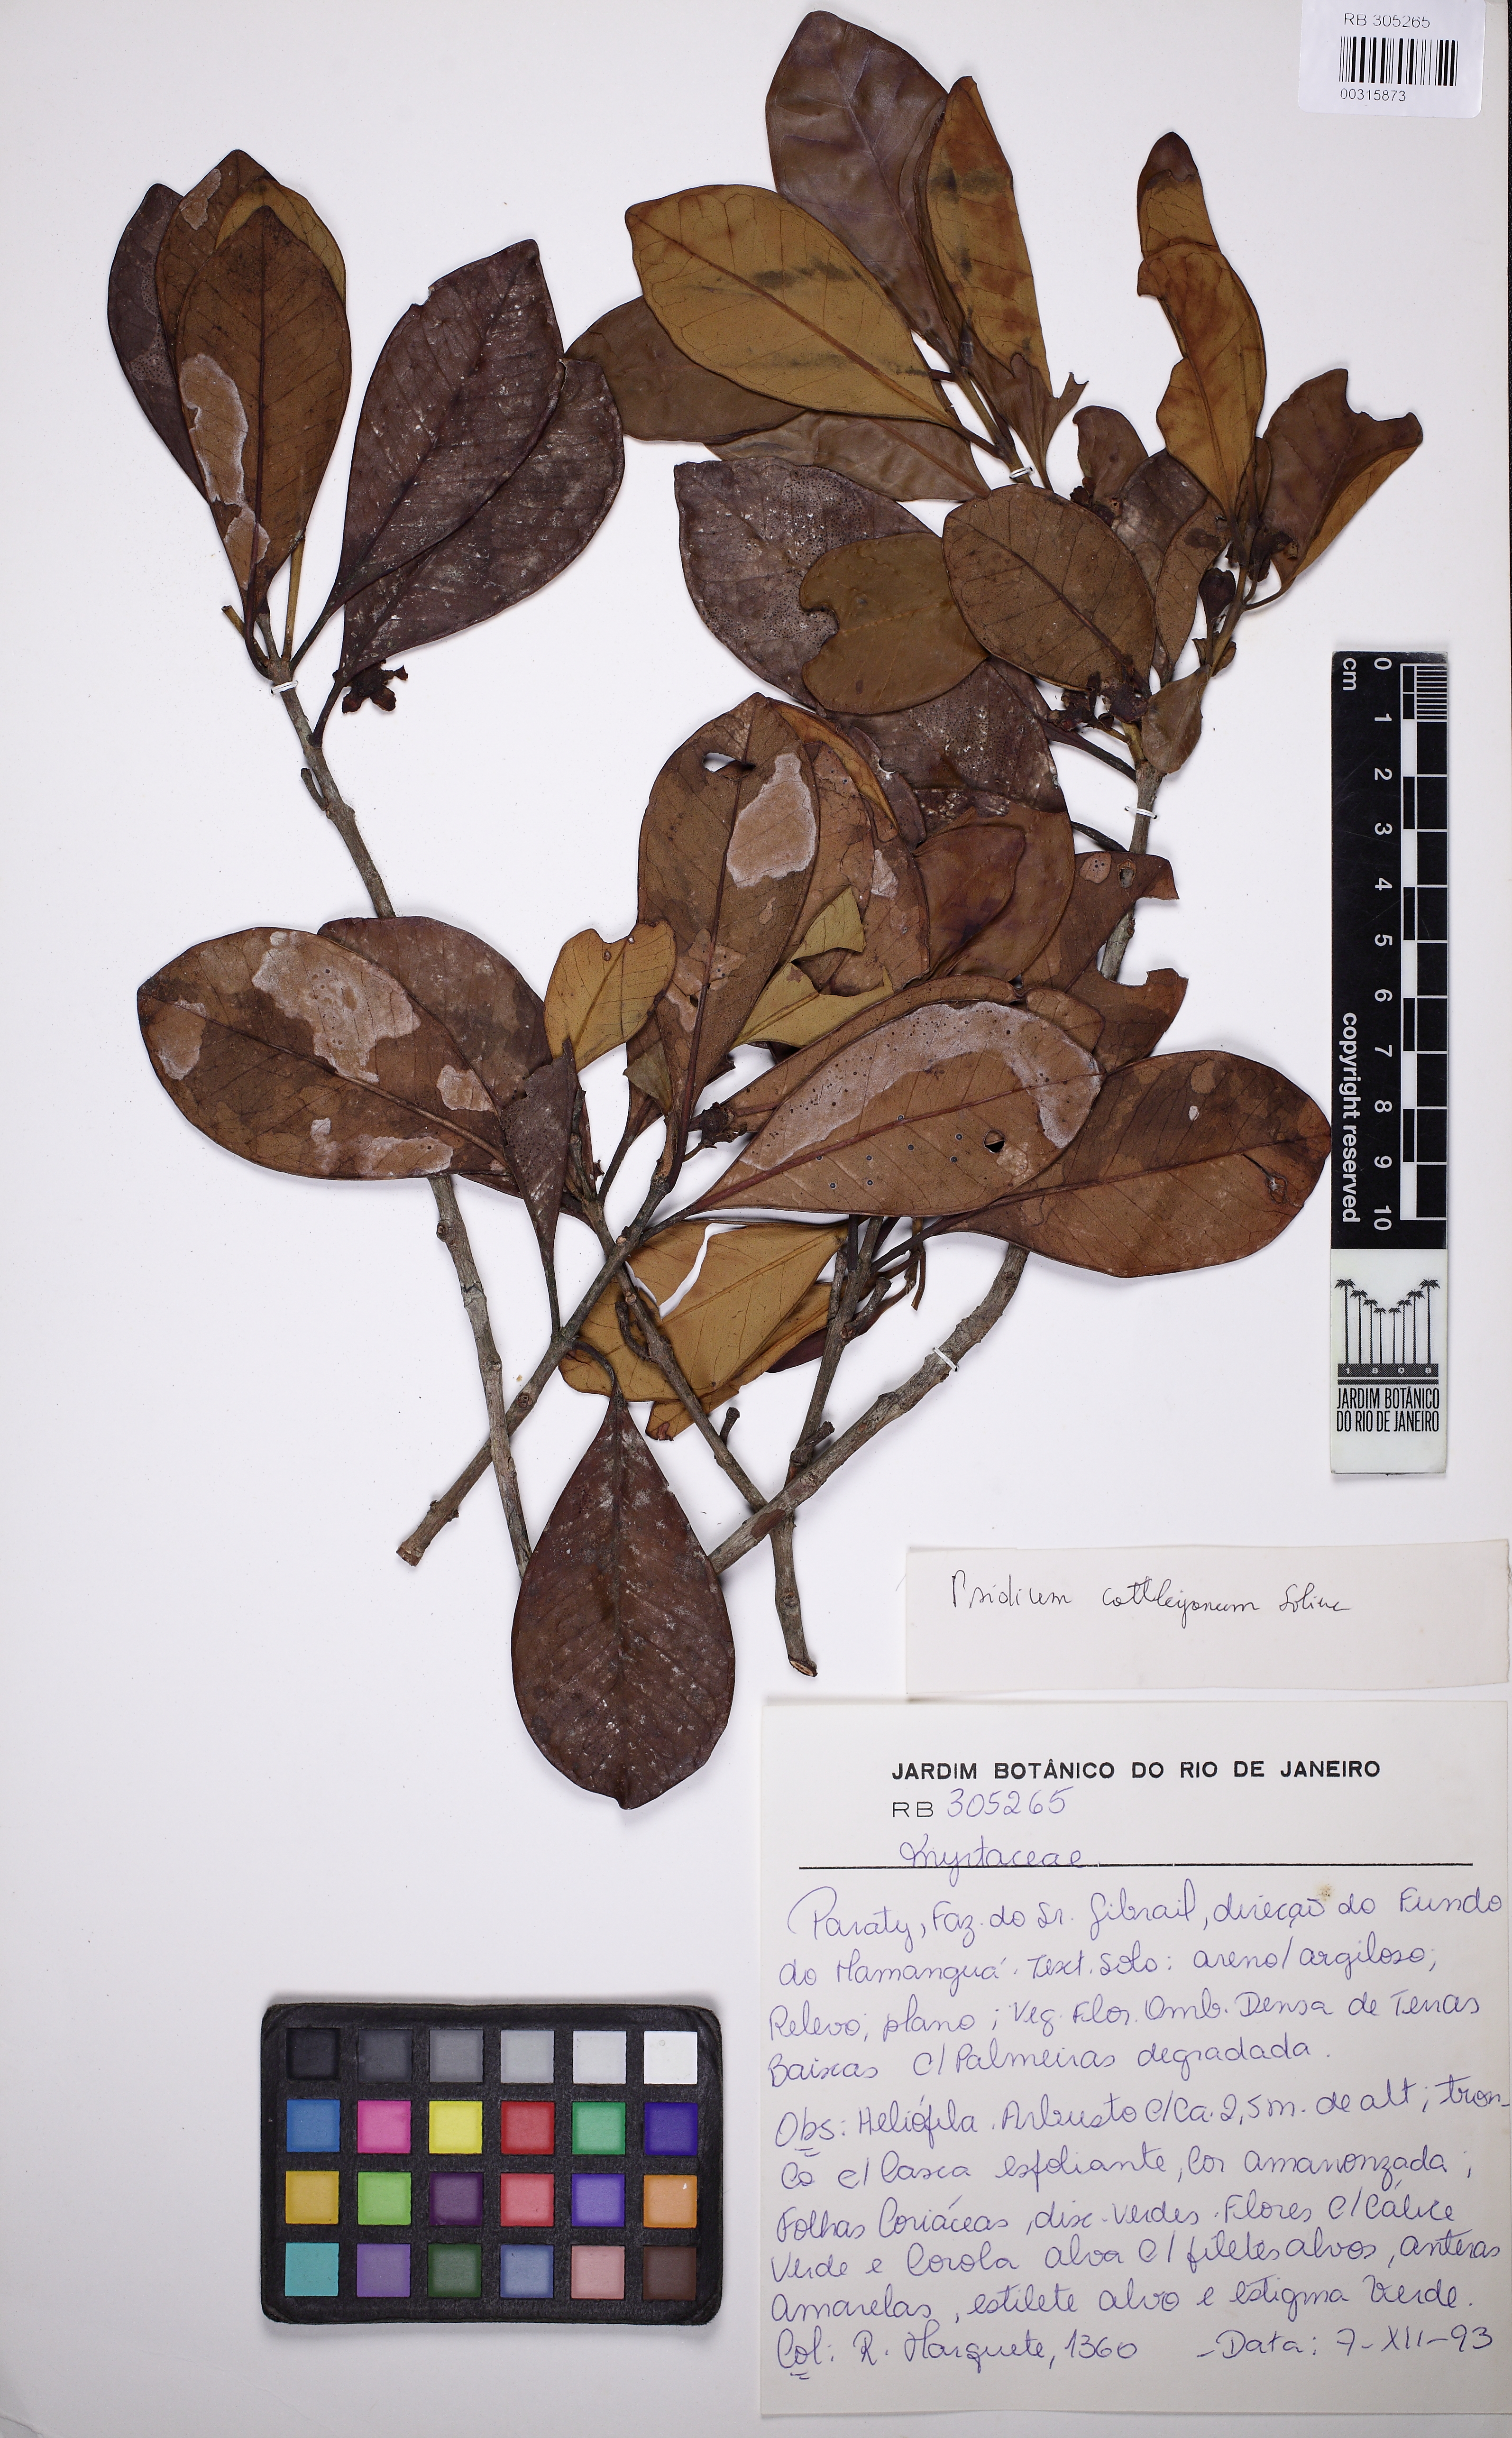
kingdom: Plantae
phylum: Tracheophyta
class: Magnoliopsida
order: Myrtales
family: Myrtaceae
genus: Psidium
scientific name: Psidium cattleianum
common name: Strawberry guava
